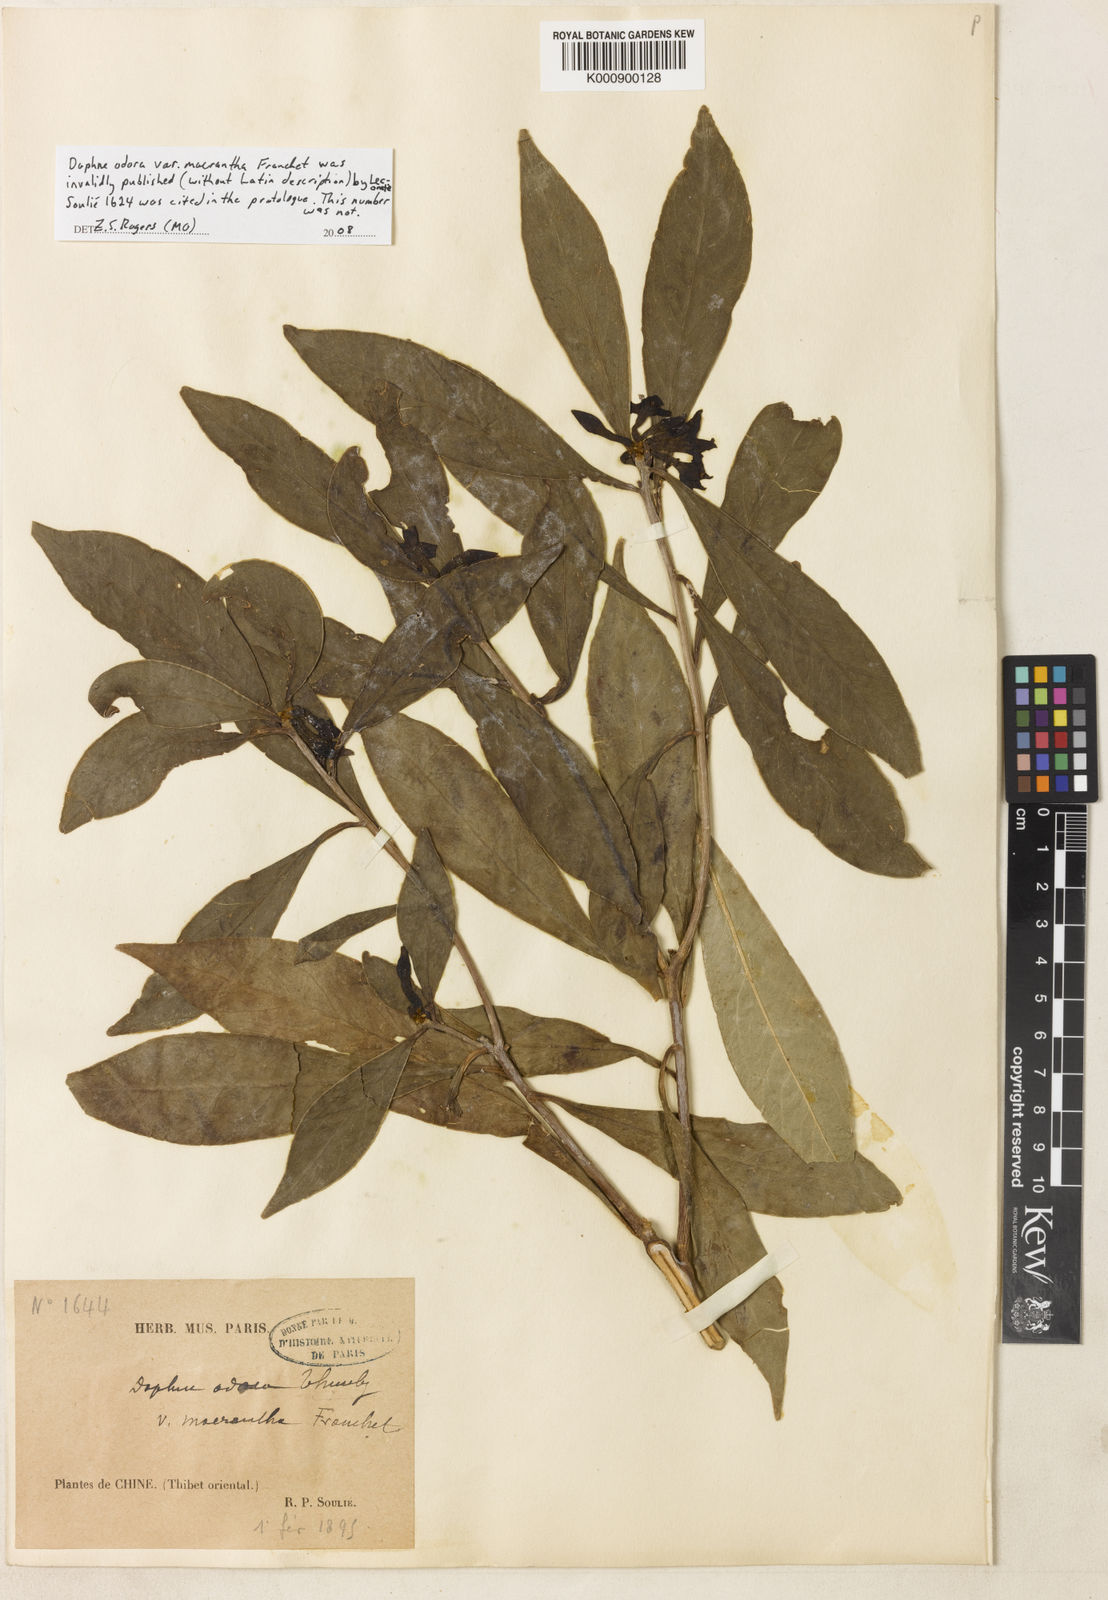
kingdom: Plantae
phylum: Tracheophyta
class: Magnoliopsida
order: Malvales
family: Thymelaeaceae
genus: Daphne
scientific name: Daphne yunnanensis
